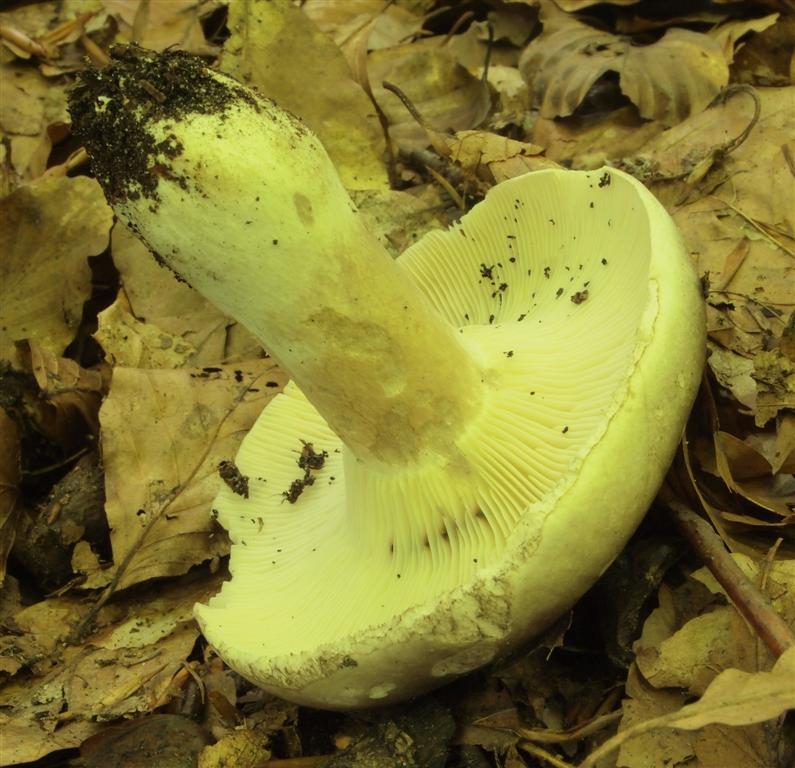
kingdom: Fungi
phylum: Basidiomycota
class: Agaricomycetes
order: Russulales
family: Russulaceae
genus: Russula
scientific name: Russula
